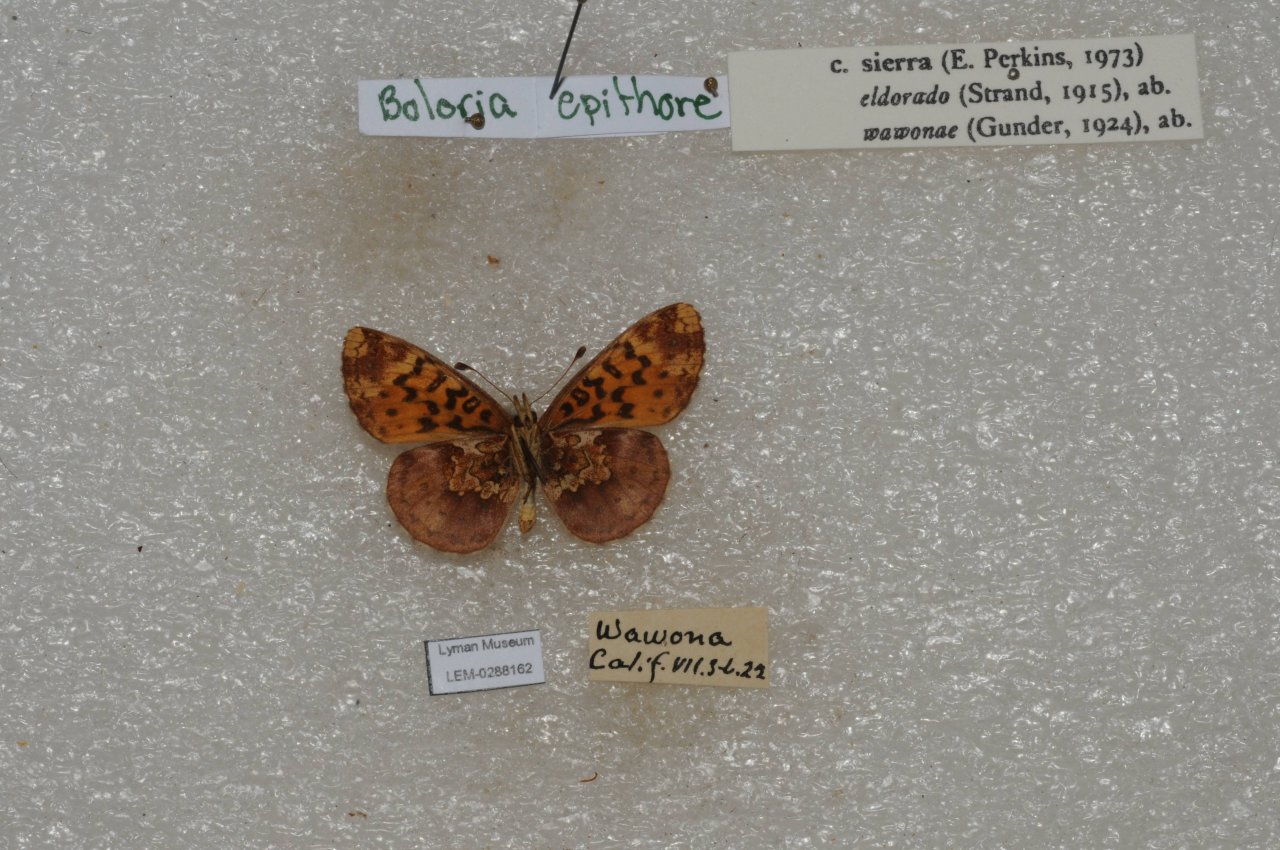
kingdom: Animalia
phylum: Arthropoda
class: Insecta
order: Lepidoptera
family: Nymphalidae
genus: Boloria
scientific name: Boloria epithore
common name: Pacific Fritillary
